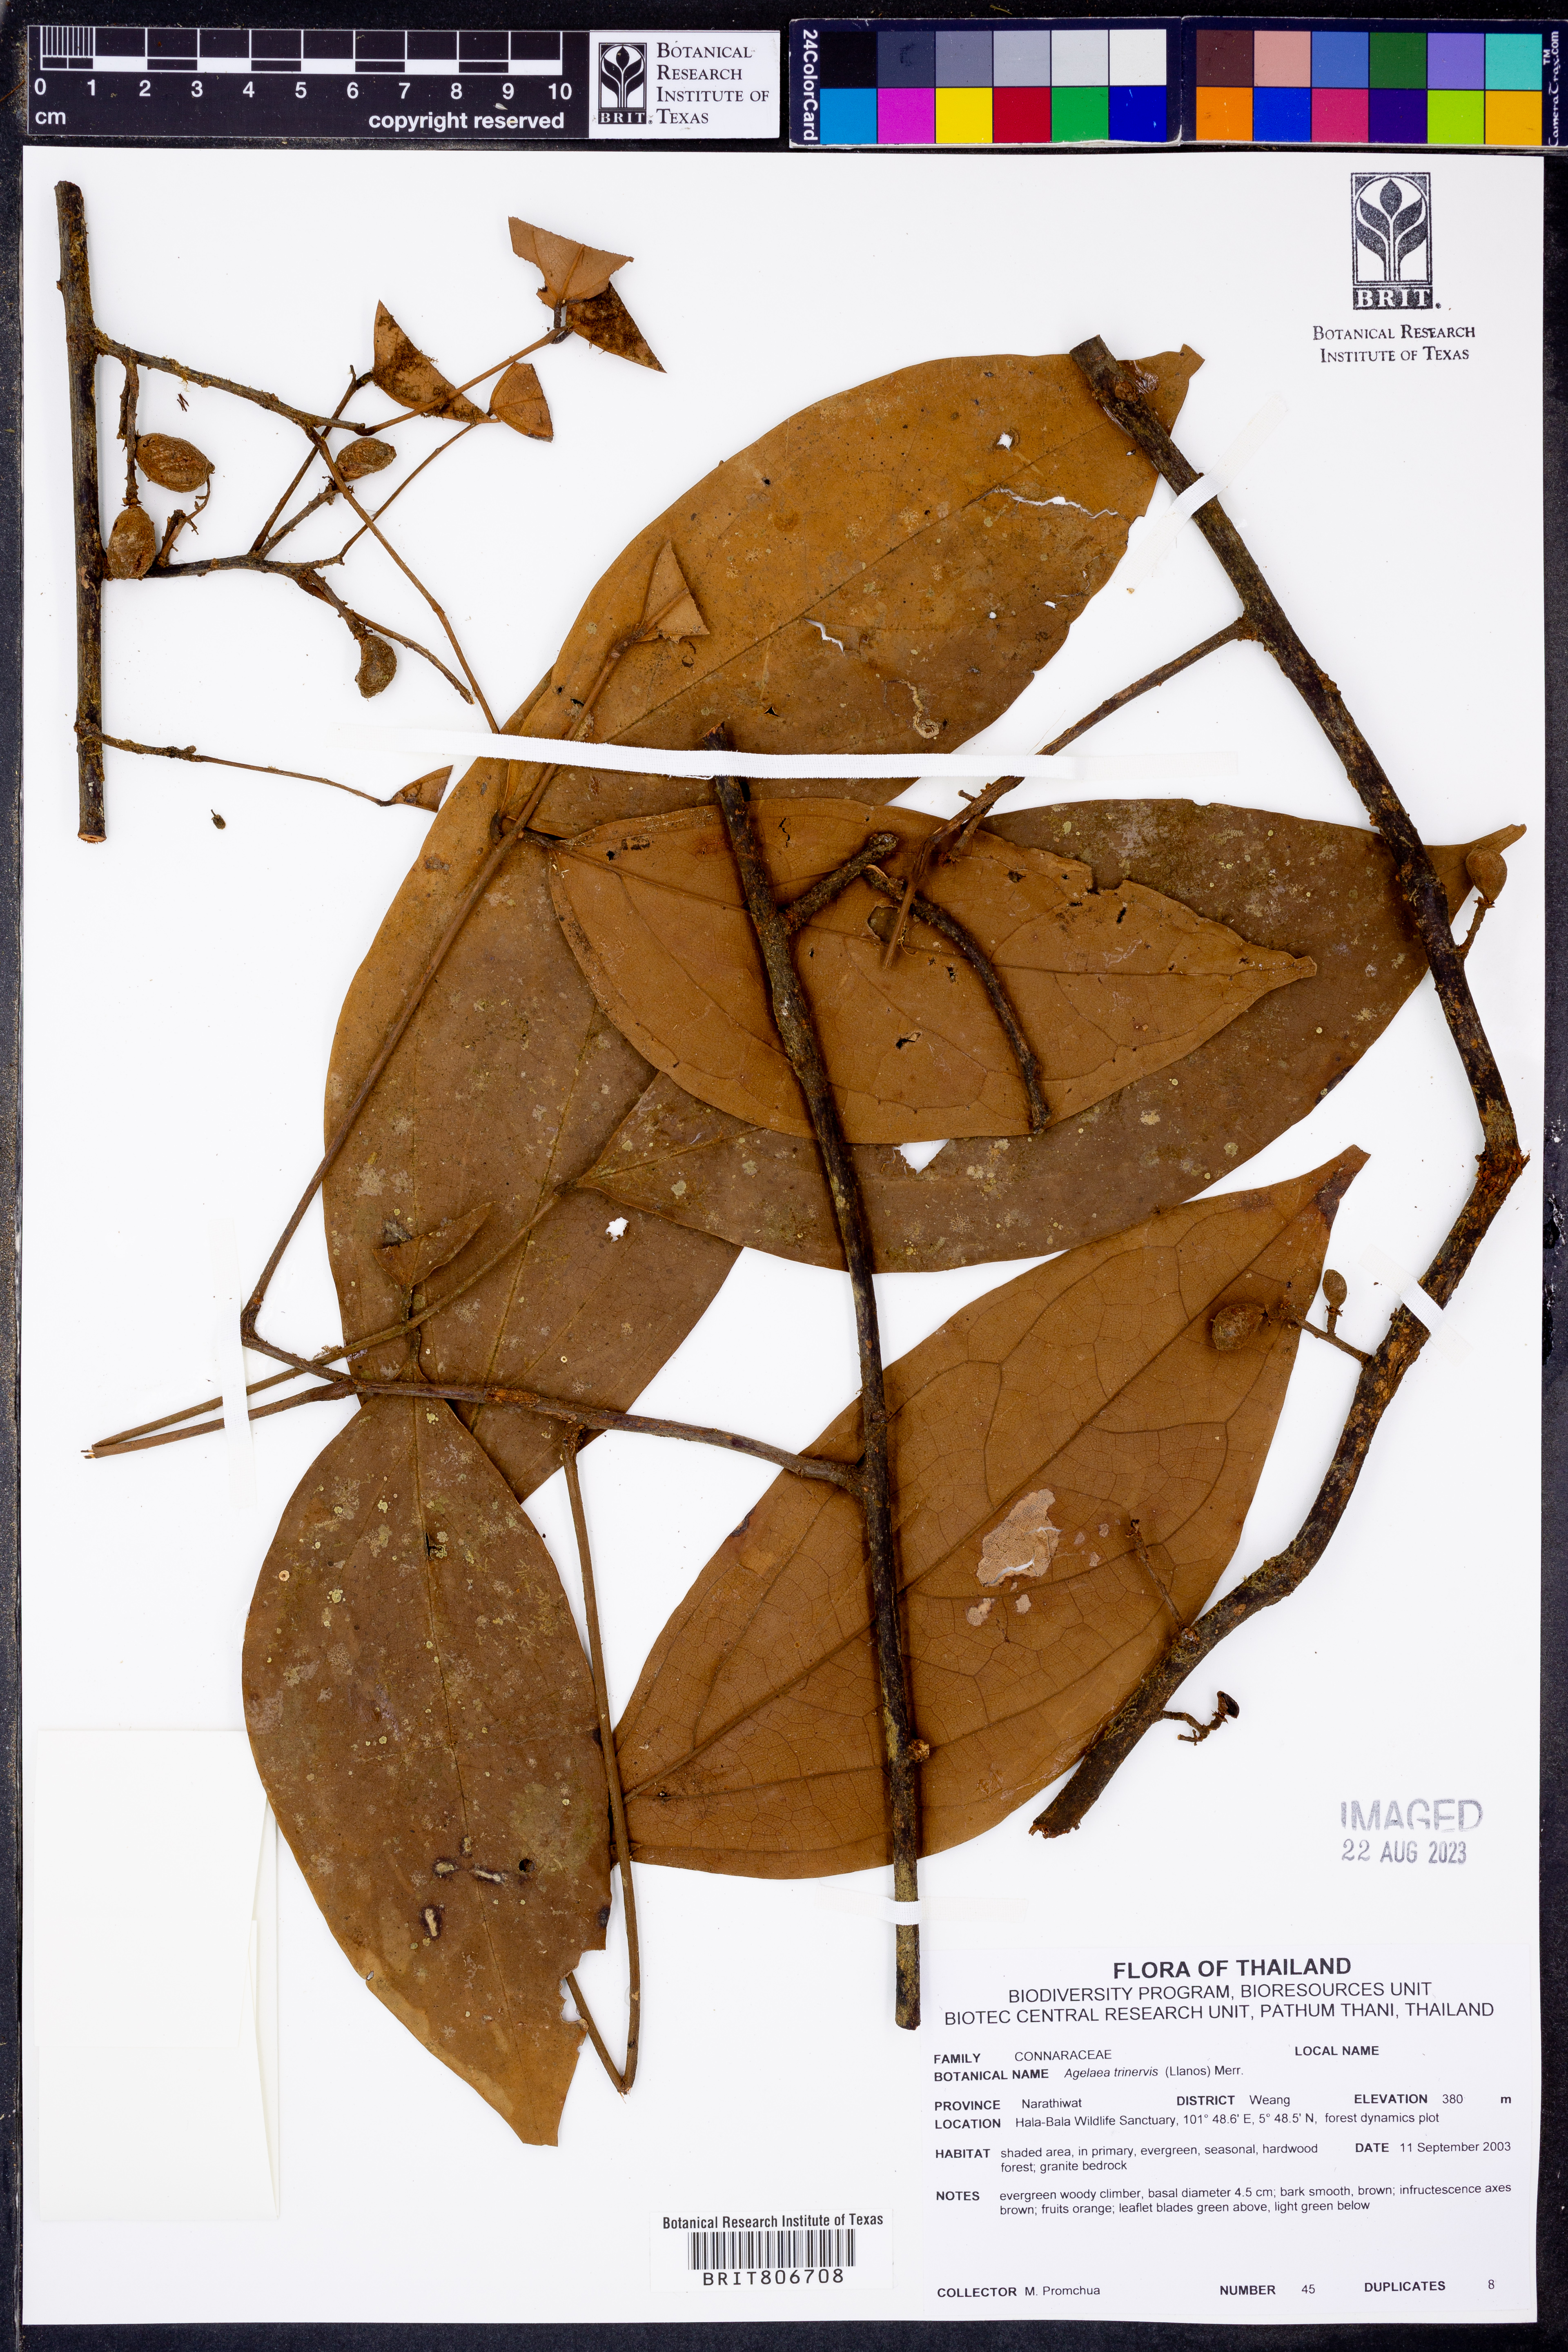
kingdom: Plantae
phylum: Tracheophyta
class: Magnoliopsida
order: Oxalidales
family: Connaraceae
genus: Agelaea
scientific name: Agelaea trinervis
